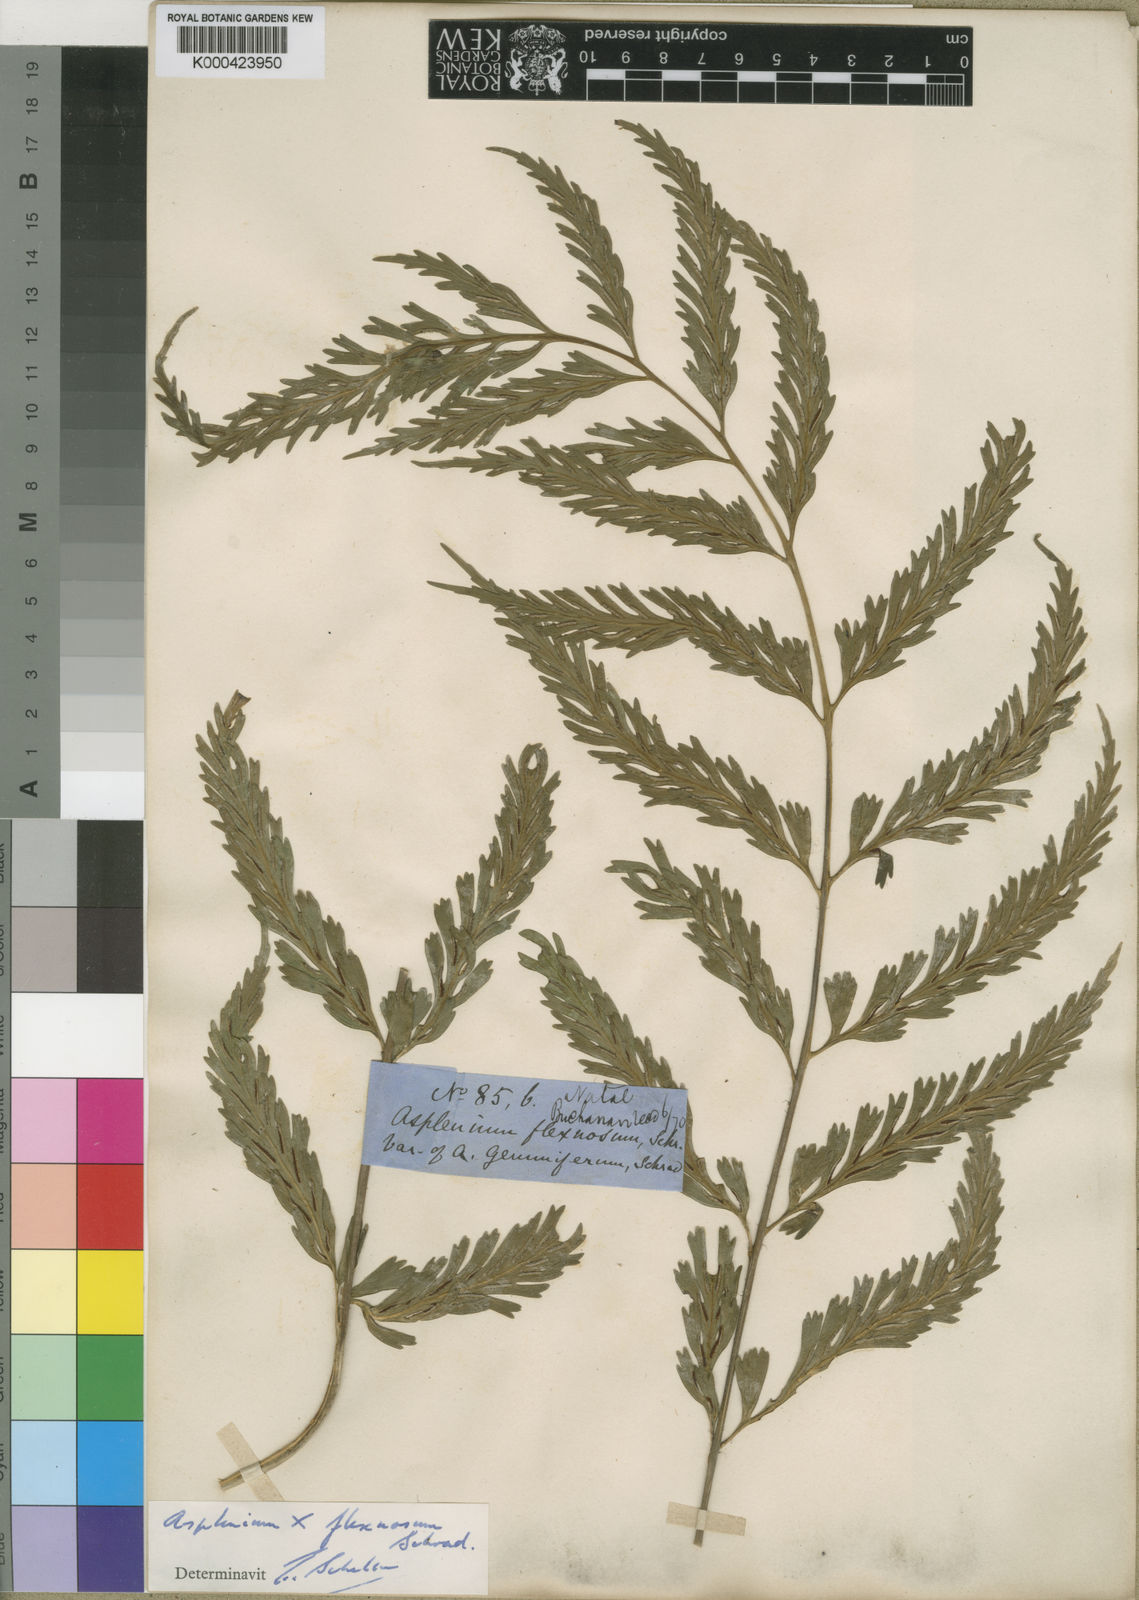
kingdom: Plantae
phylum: Tracheophyta
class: Polypodiopsida
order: Polypodiales
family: Aspleniaceae
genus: Asplenium
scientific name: Asplenium flexuosum
